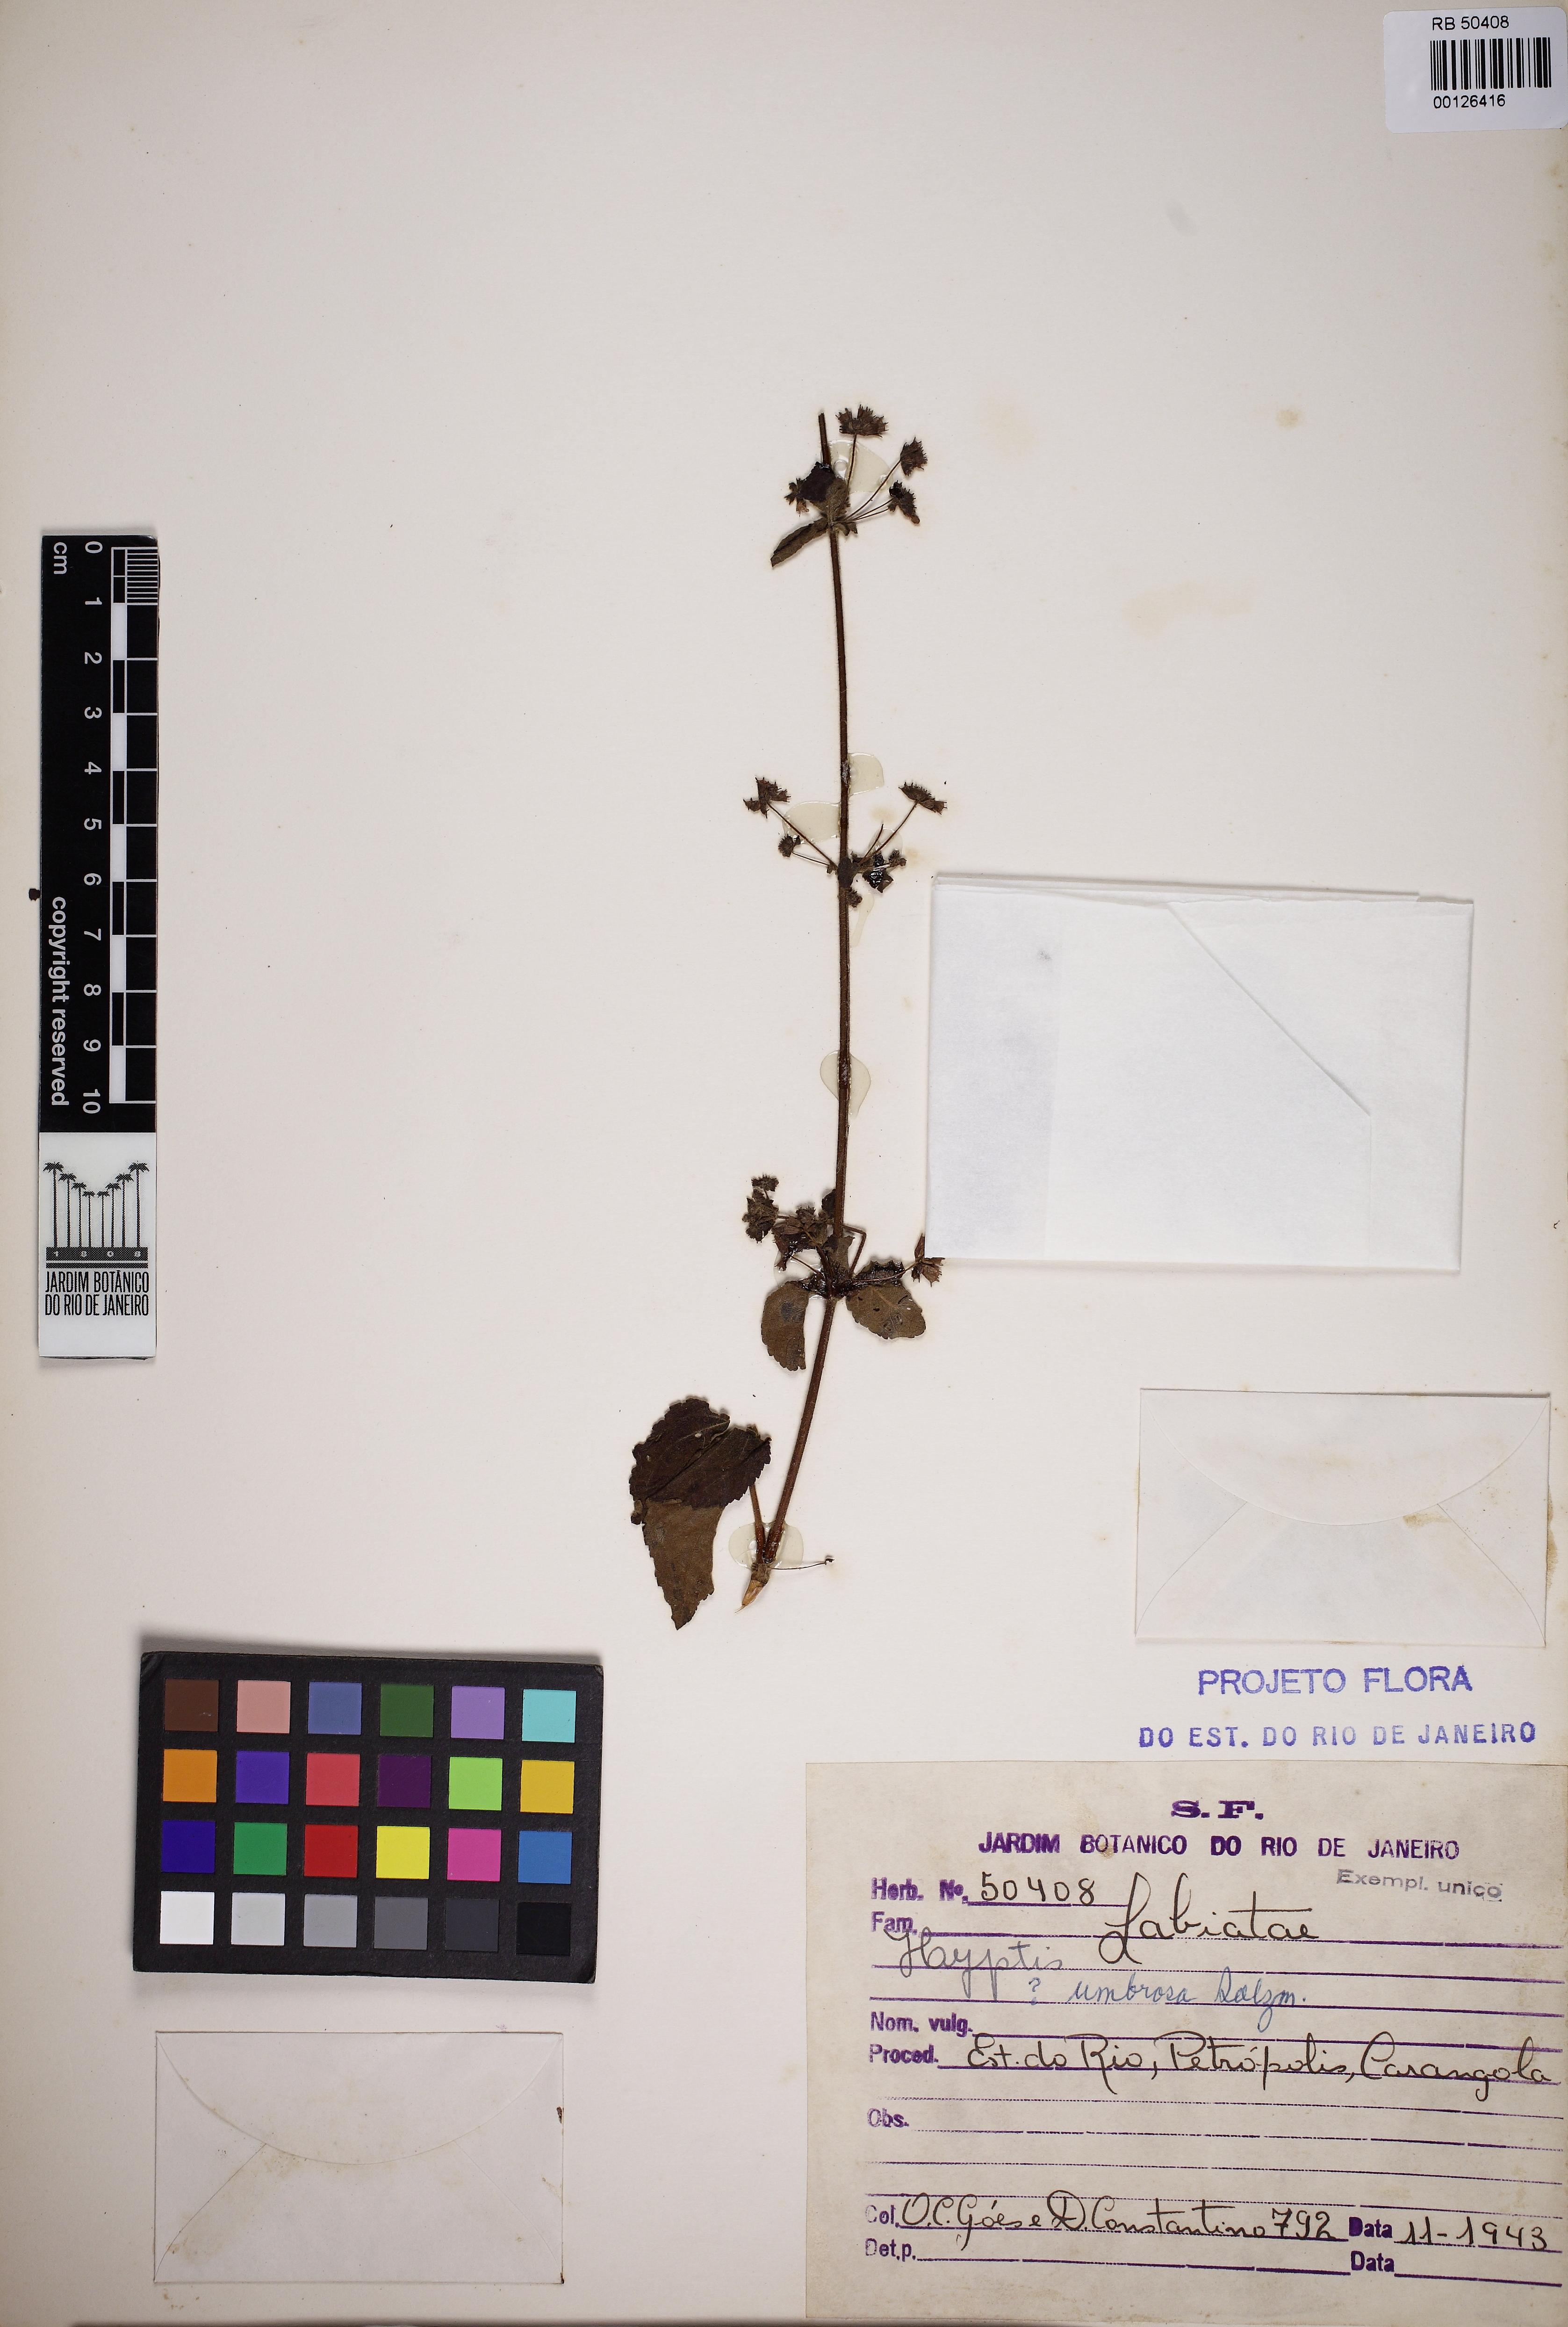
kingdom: Plantae
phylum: Tracheophyta
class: Magnoliopsida
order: Lamiales
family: Lamiaceae
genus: Mesosphaerum
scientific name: Mesosphaerum sidifolium
